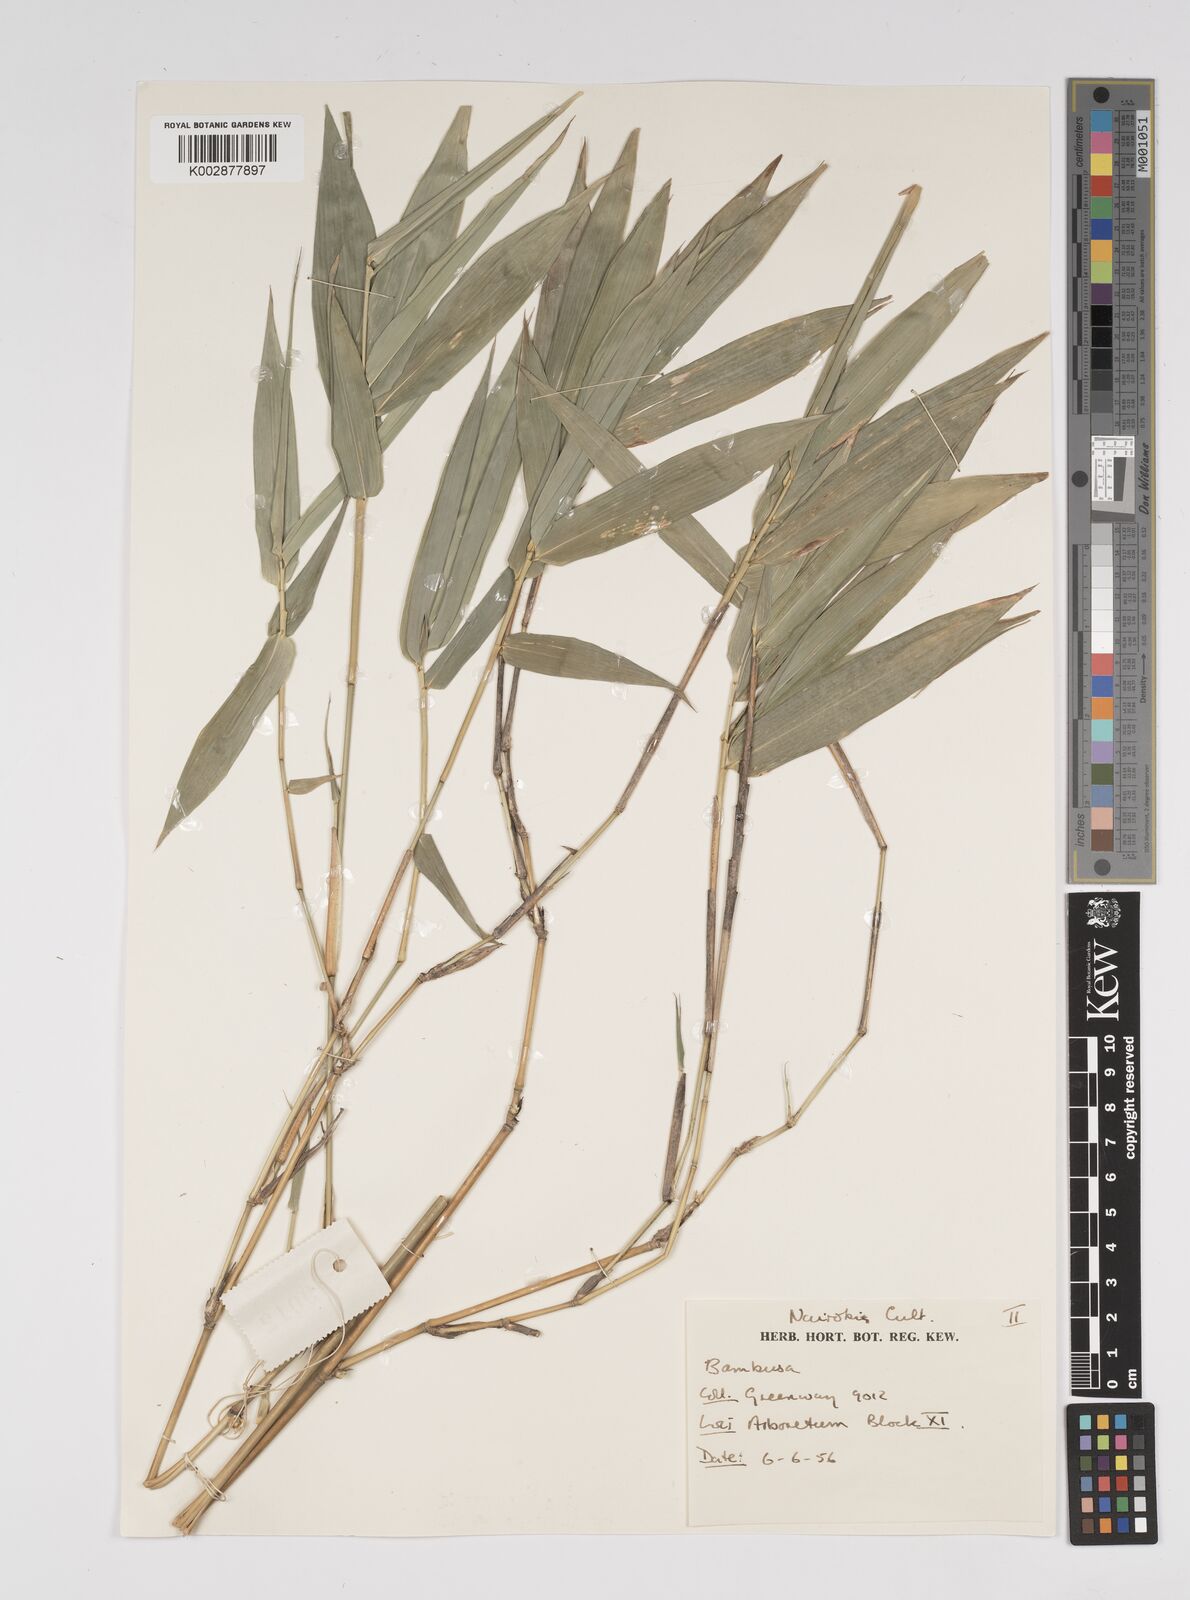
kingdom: Plantae
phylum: Tracheophyta
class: Liliopsida
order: Poales
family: Poaceae
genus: Bambusa
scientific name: Bambusa
